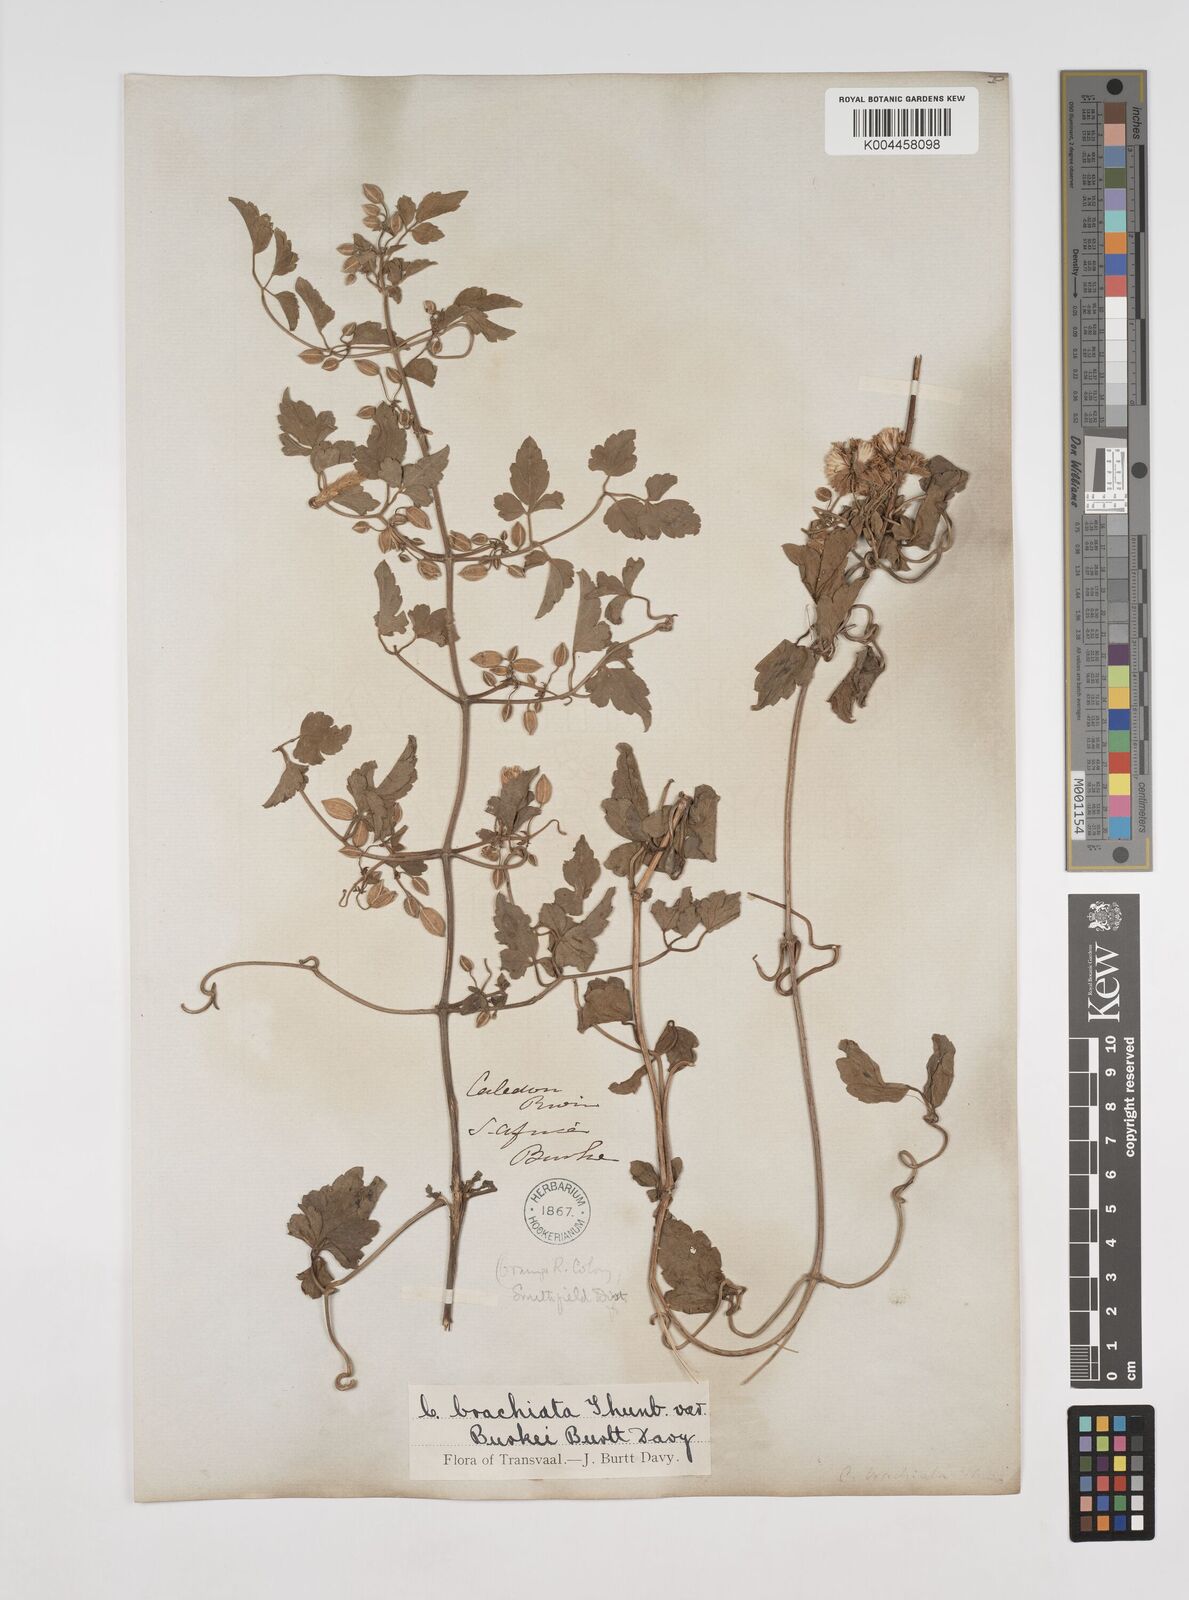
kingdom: Plantae
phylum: Tracheophyta
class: Magnoliopsida
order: Ranunculales
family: Ranunculaceae
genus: Clematis
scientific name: Clematis brachiata
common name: Traveler's-joy
